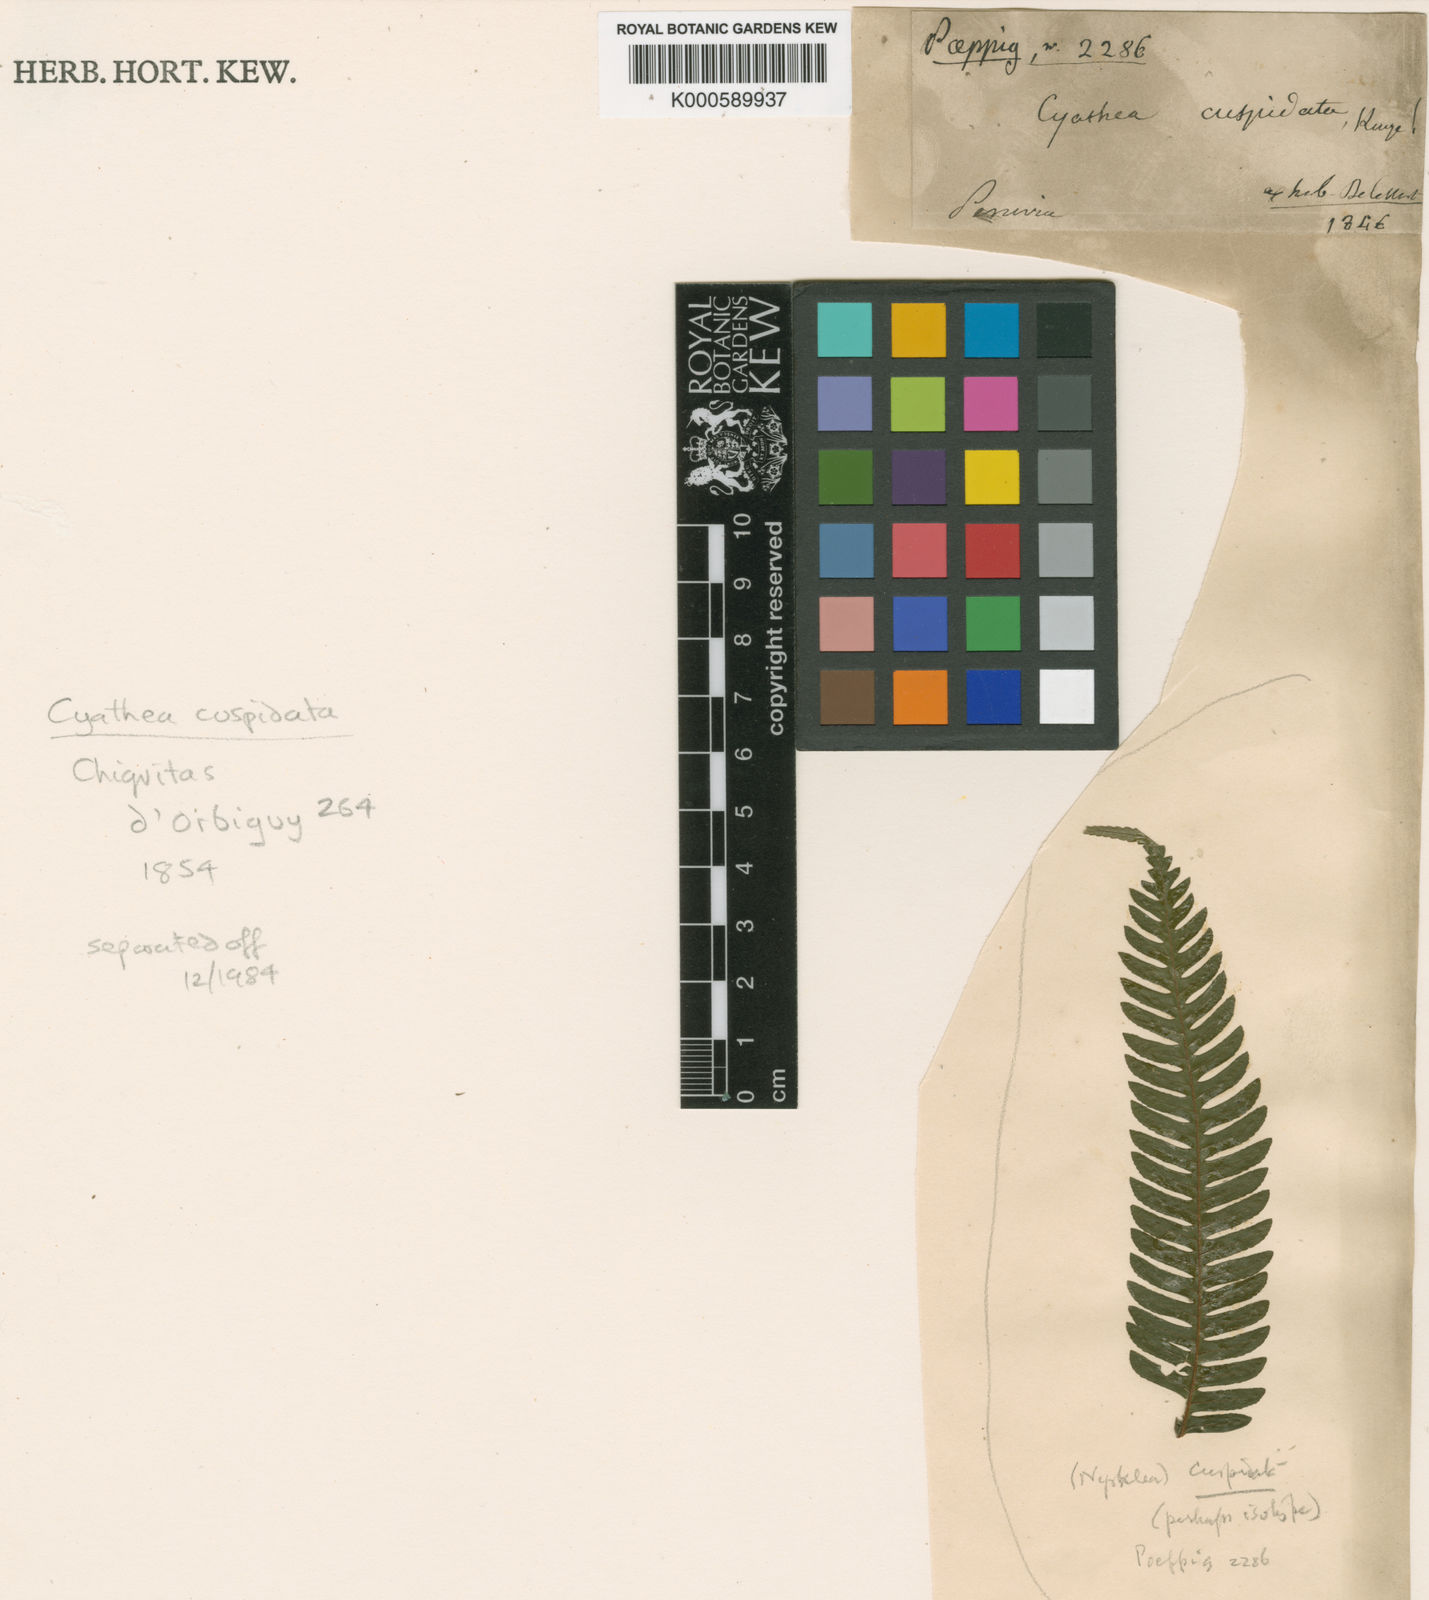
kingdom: Plantae
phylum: Tracheophyta
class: Polypodiopsida
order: Cyatheales
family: Cyatheaceae
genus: Alsophila
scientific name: Alsophila cuspidata
